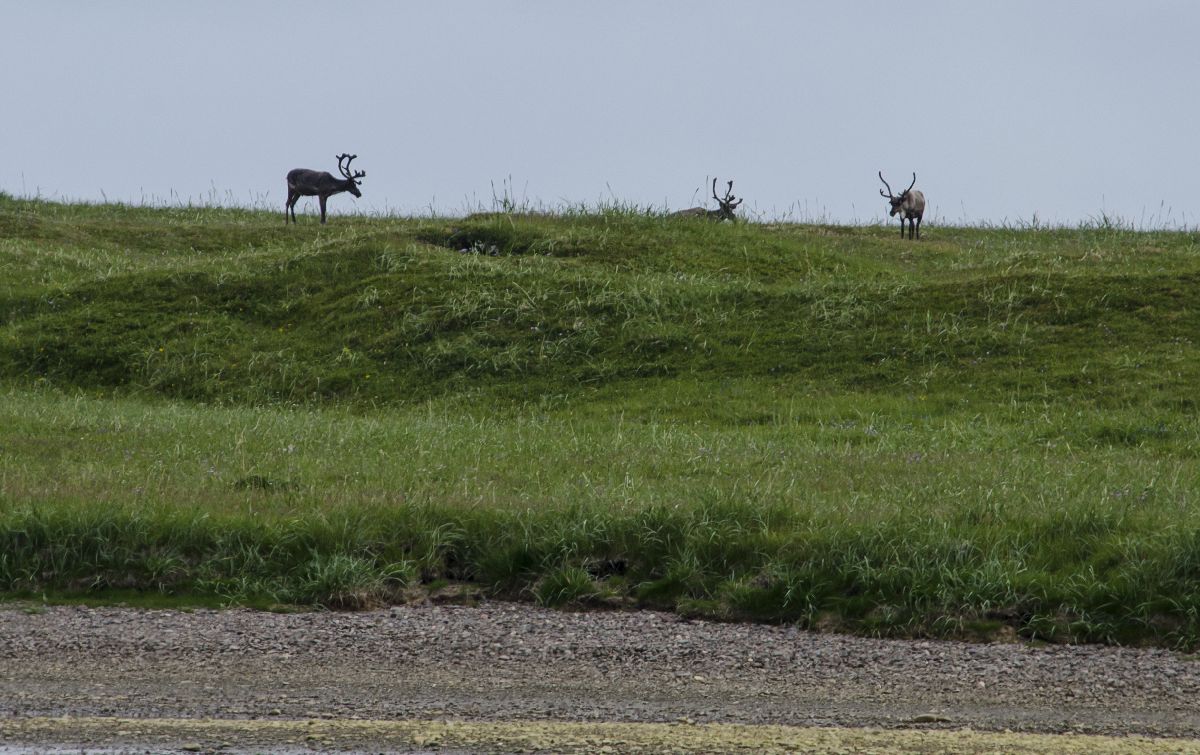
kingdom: Animalia
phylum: Chordata
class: Mammalia
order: Artiodactyla
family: Cervidae
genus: Rangifer
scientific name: Rangifer tarandus
